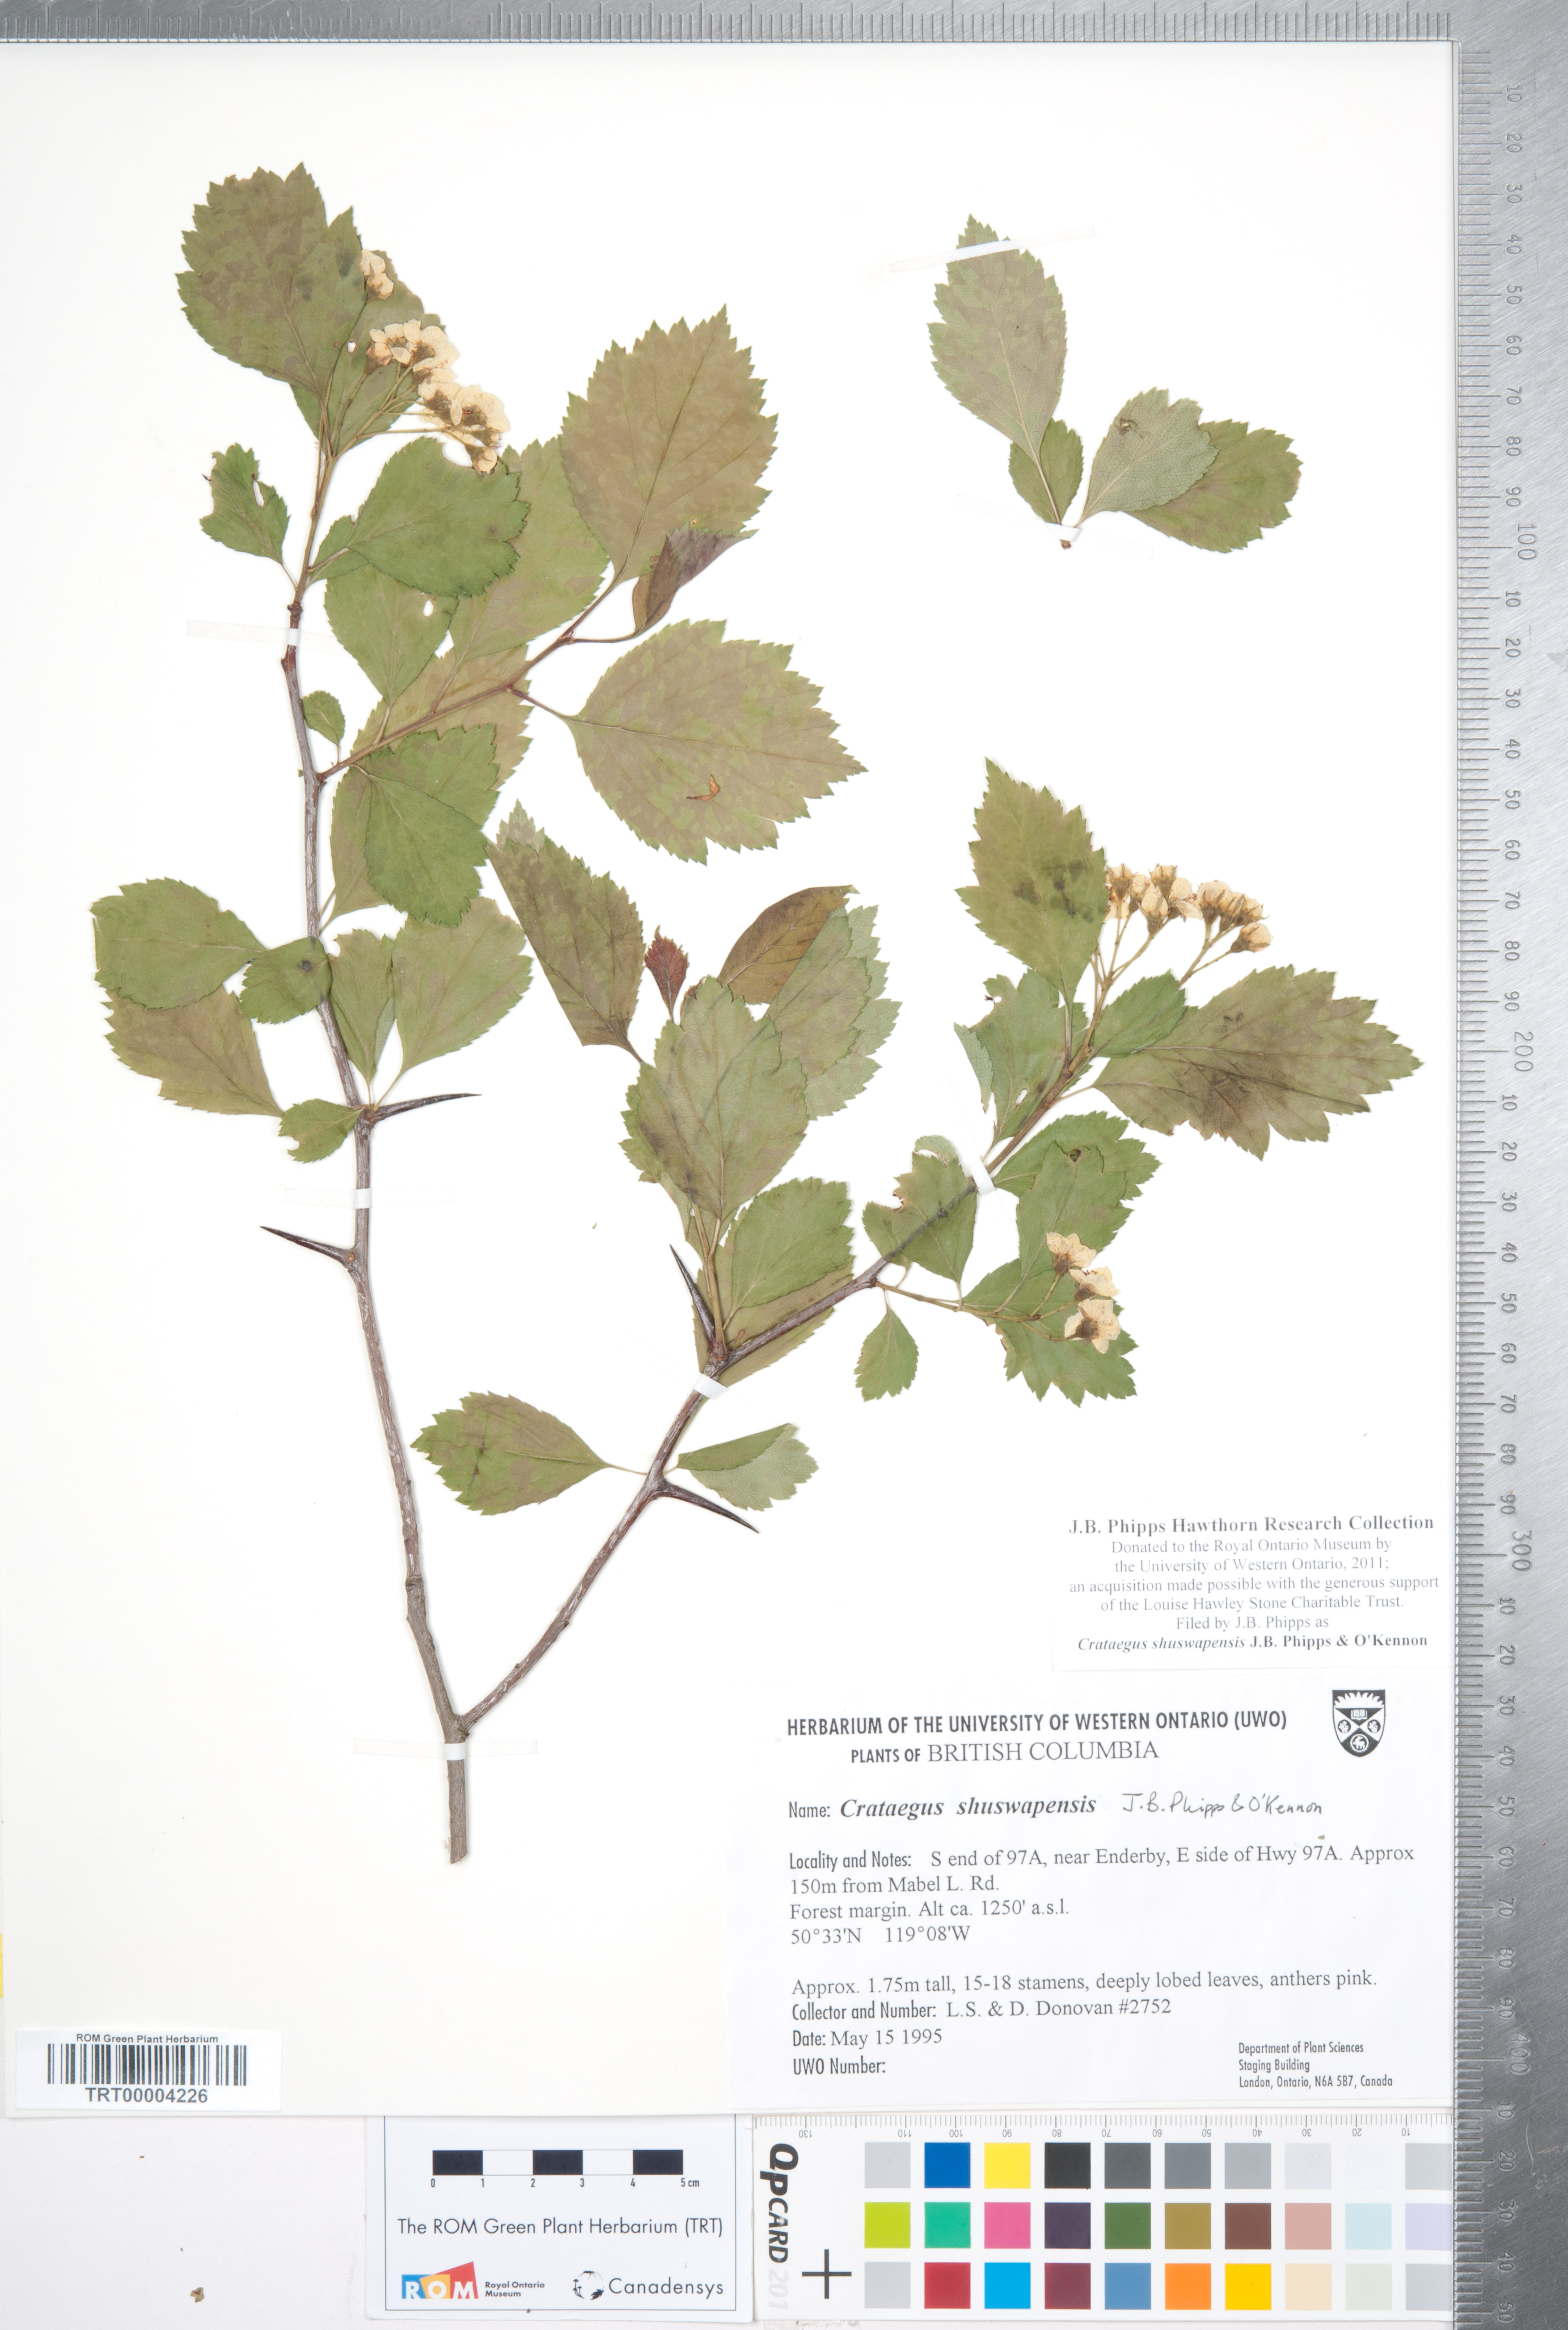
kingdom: Plantae
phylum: Tracheophyta
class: Magnoliopsida
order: Rosales
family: Rosaceae
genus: Crataegus
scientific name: Crataegus shuswapensis
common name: Shuswap hawthorn
